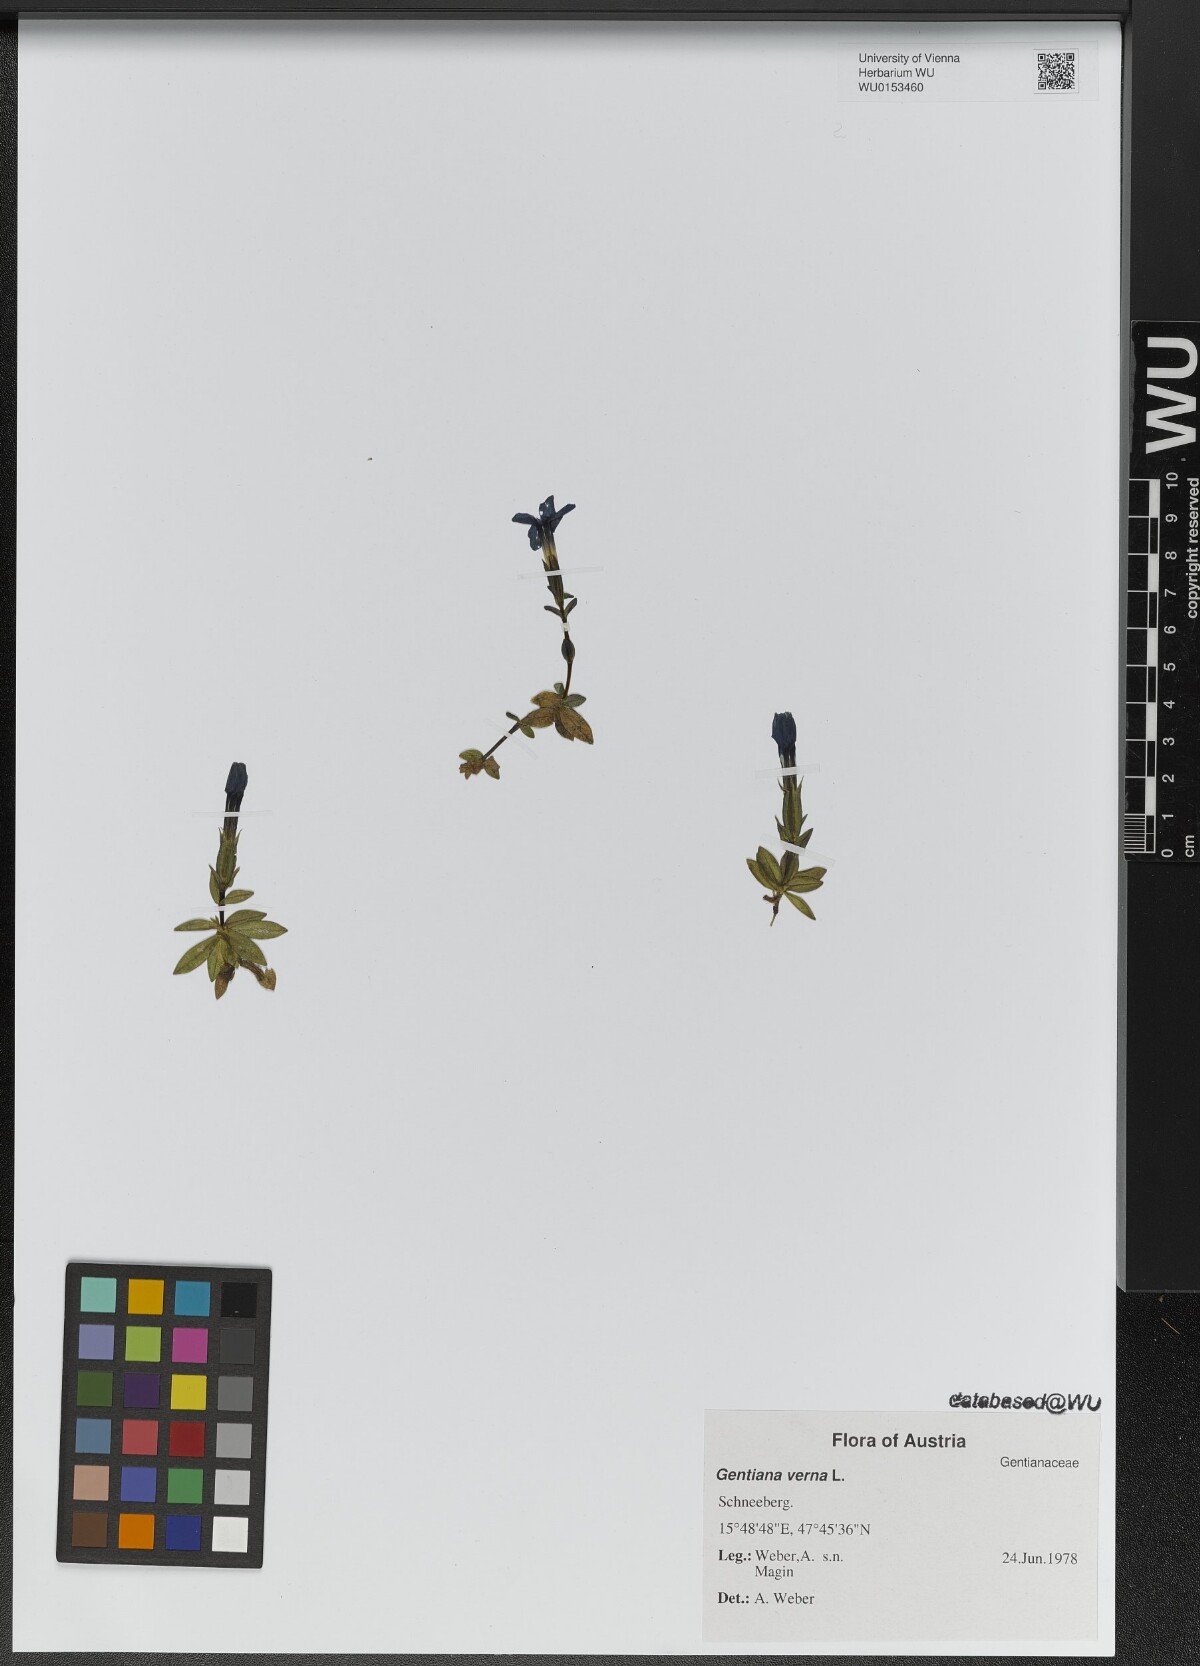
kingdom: Plantae
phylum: Tracheophyta
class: Magnoliopsida
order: Gentianales
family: Gentianaceae
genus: Gentiana
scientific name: Gentiana verna
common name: Spring gentian
